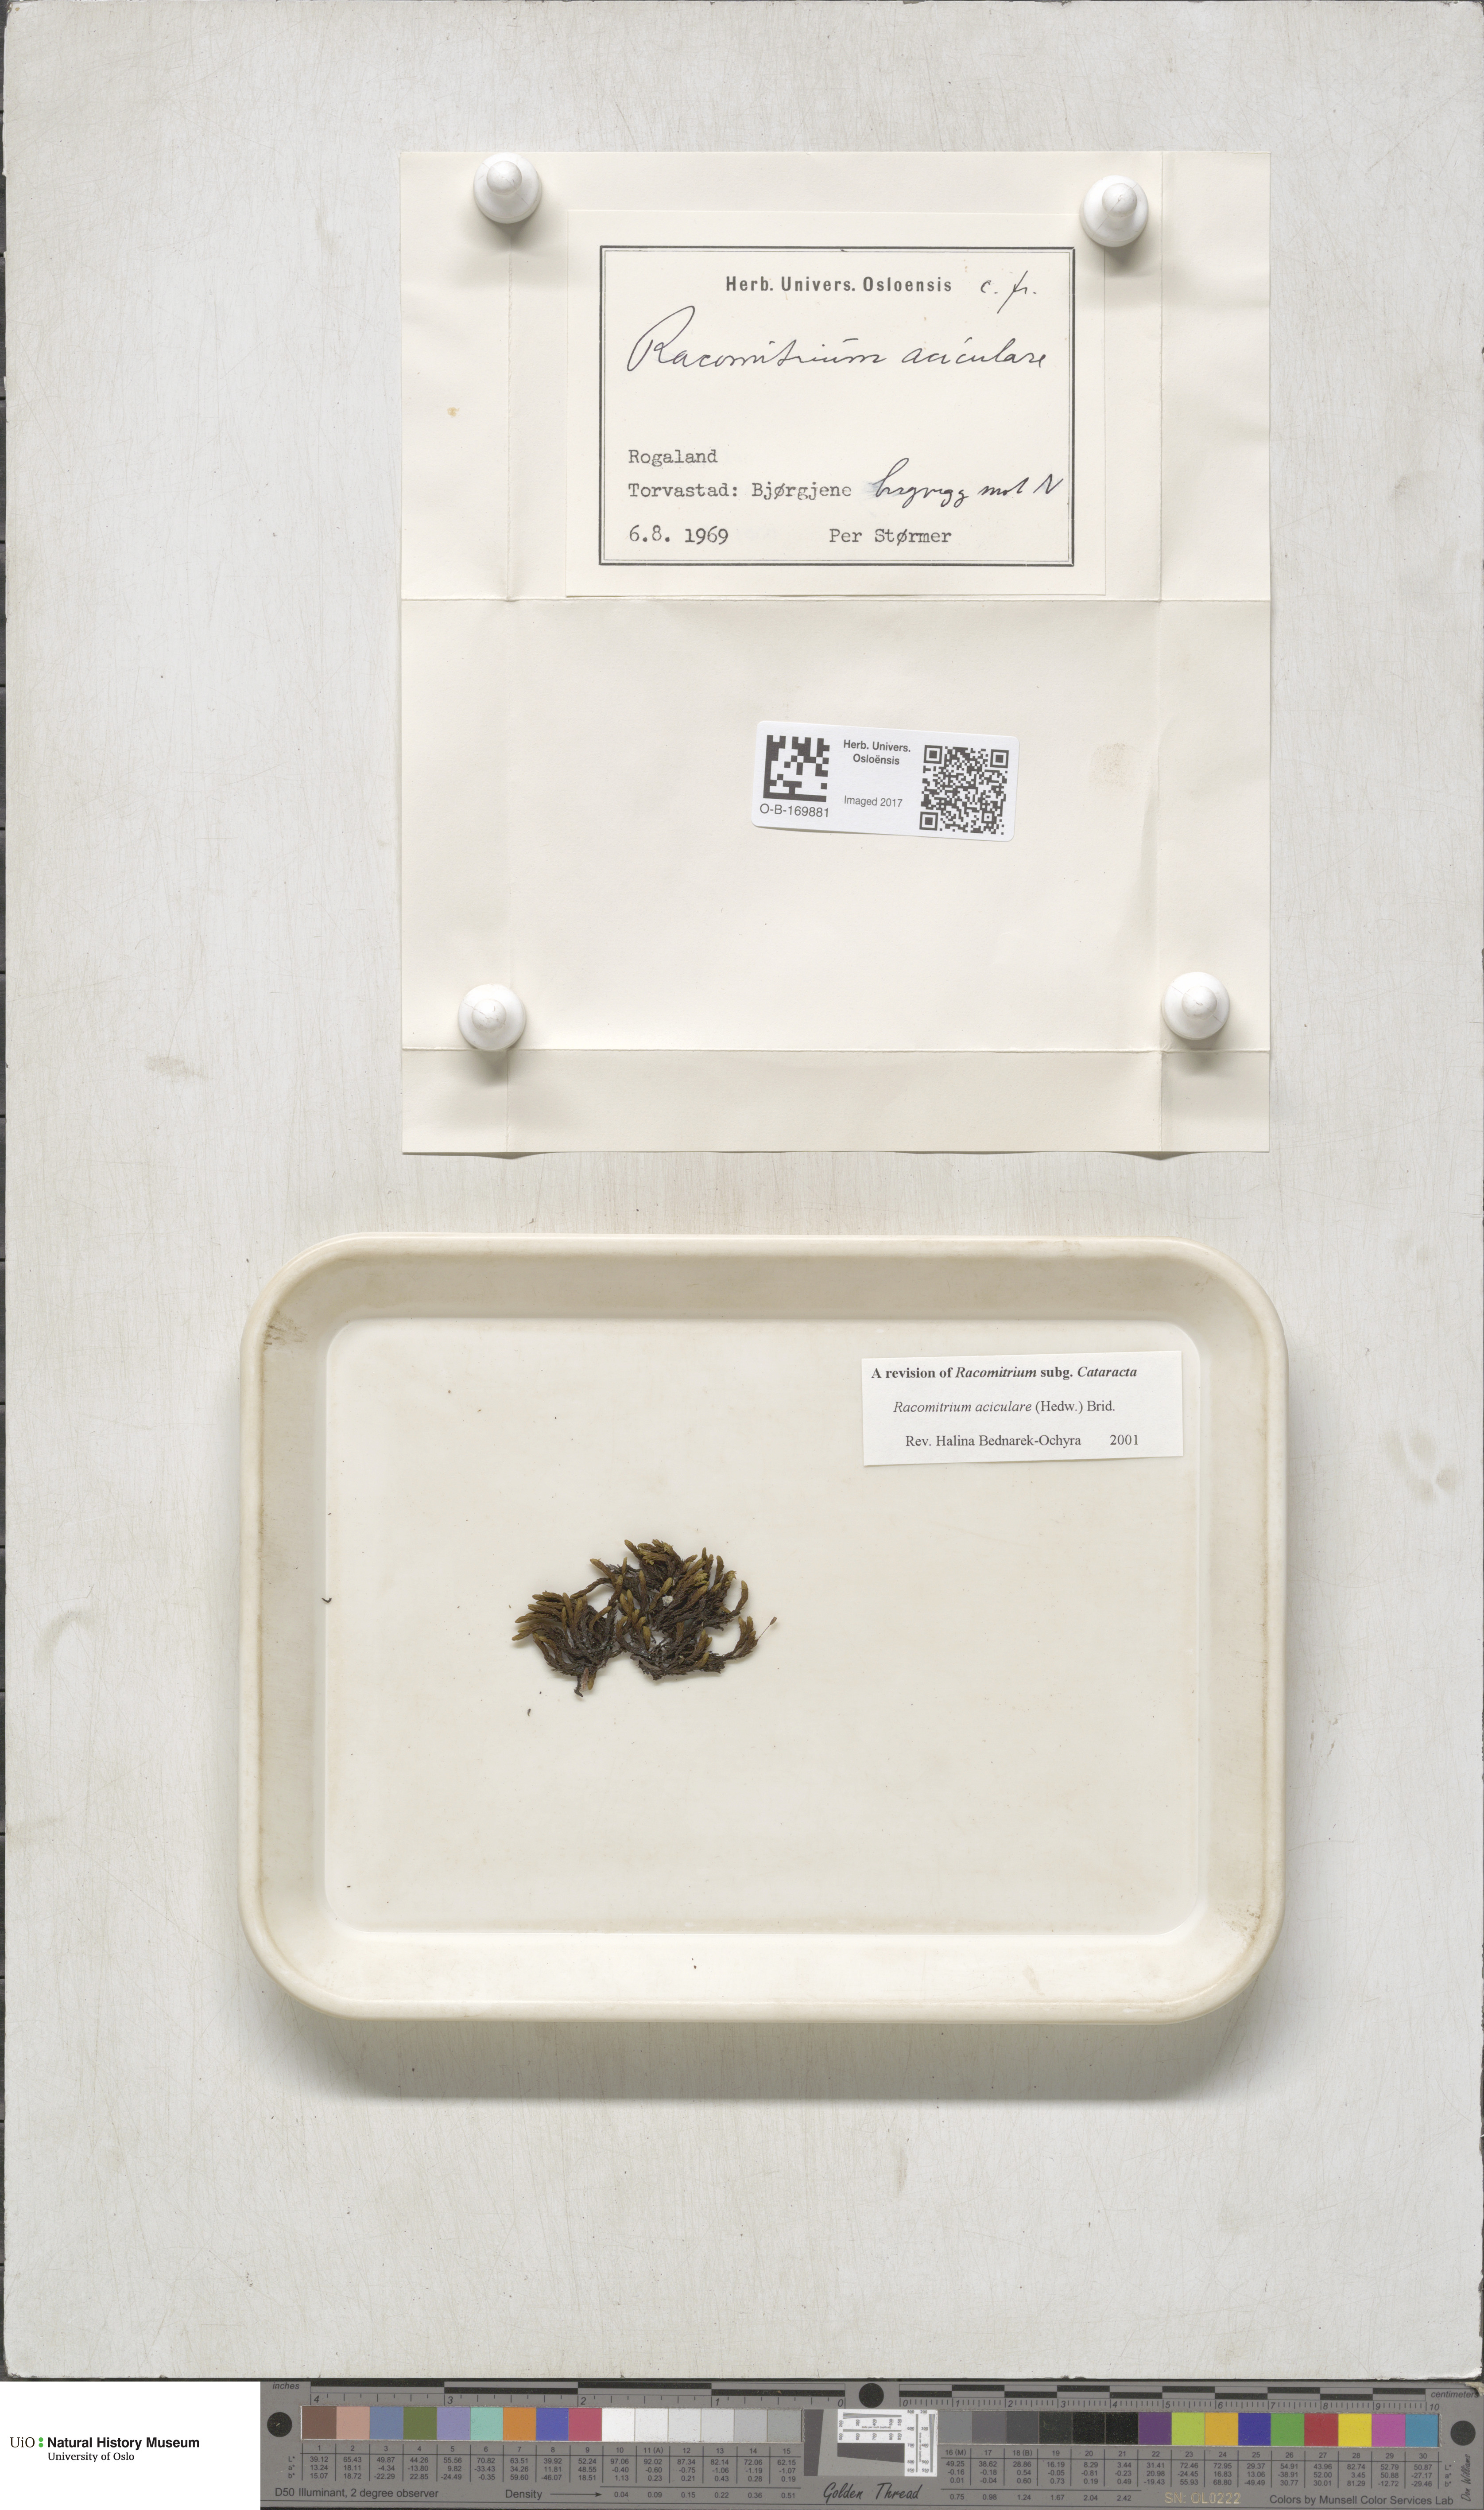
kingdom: Plantae
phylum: Bryophyta
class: Bryopsida
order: Grimmiales
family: Grimmiaceae
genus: Codriophorus
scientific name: Codriophorus acicularis
